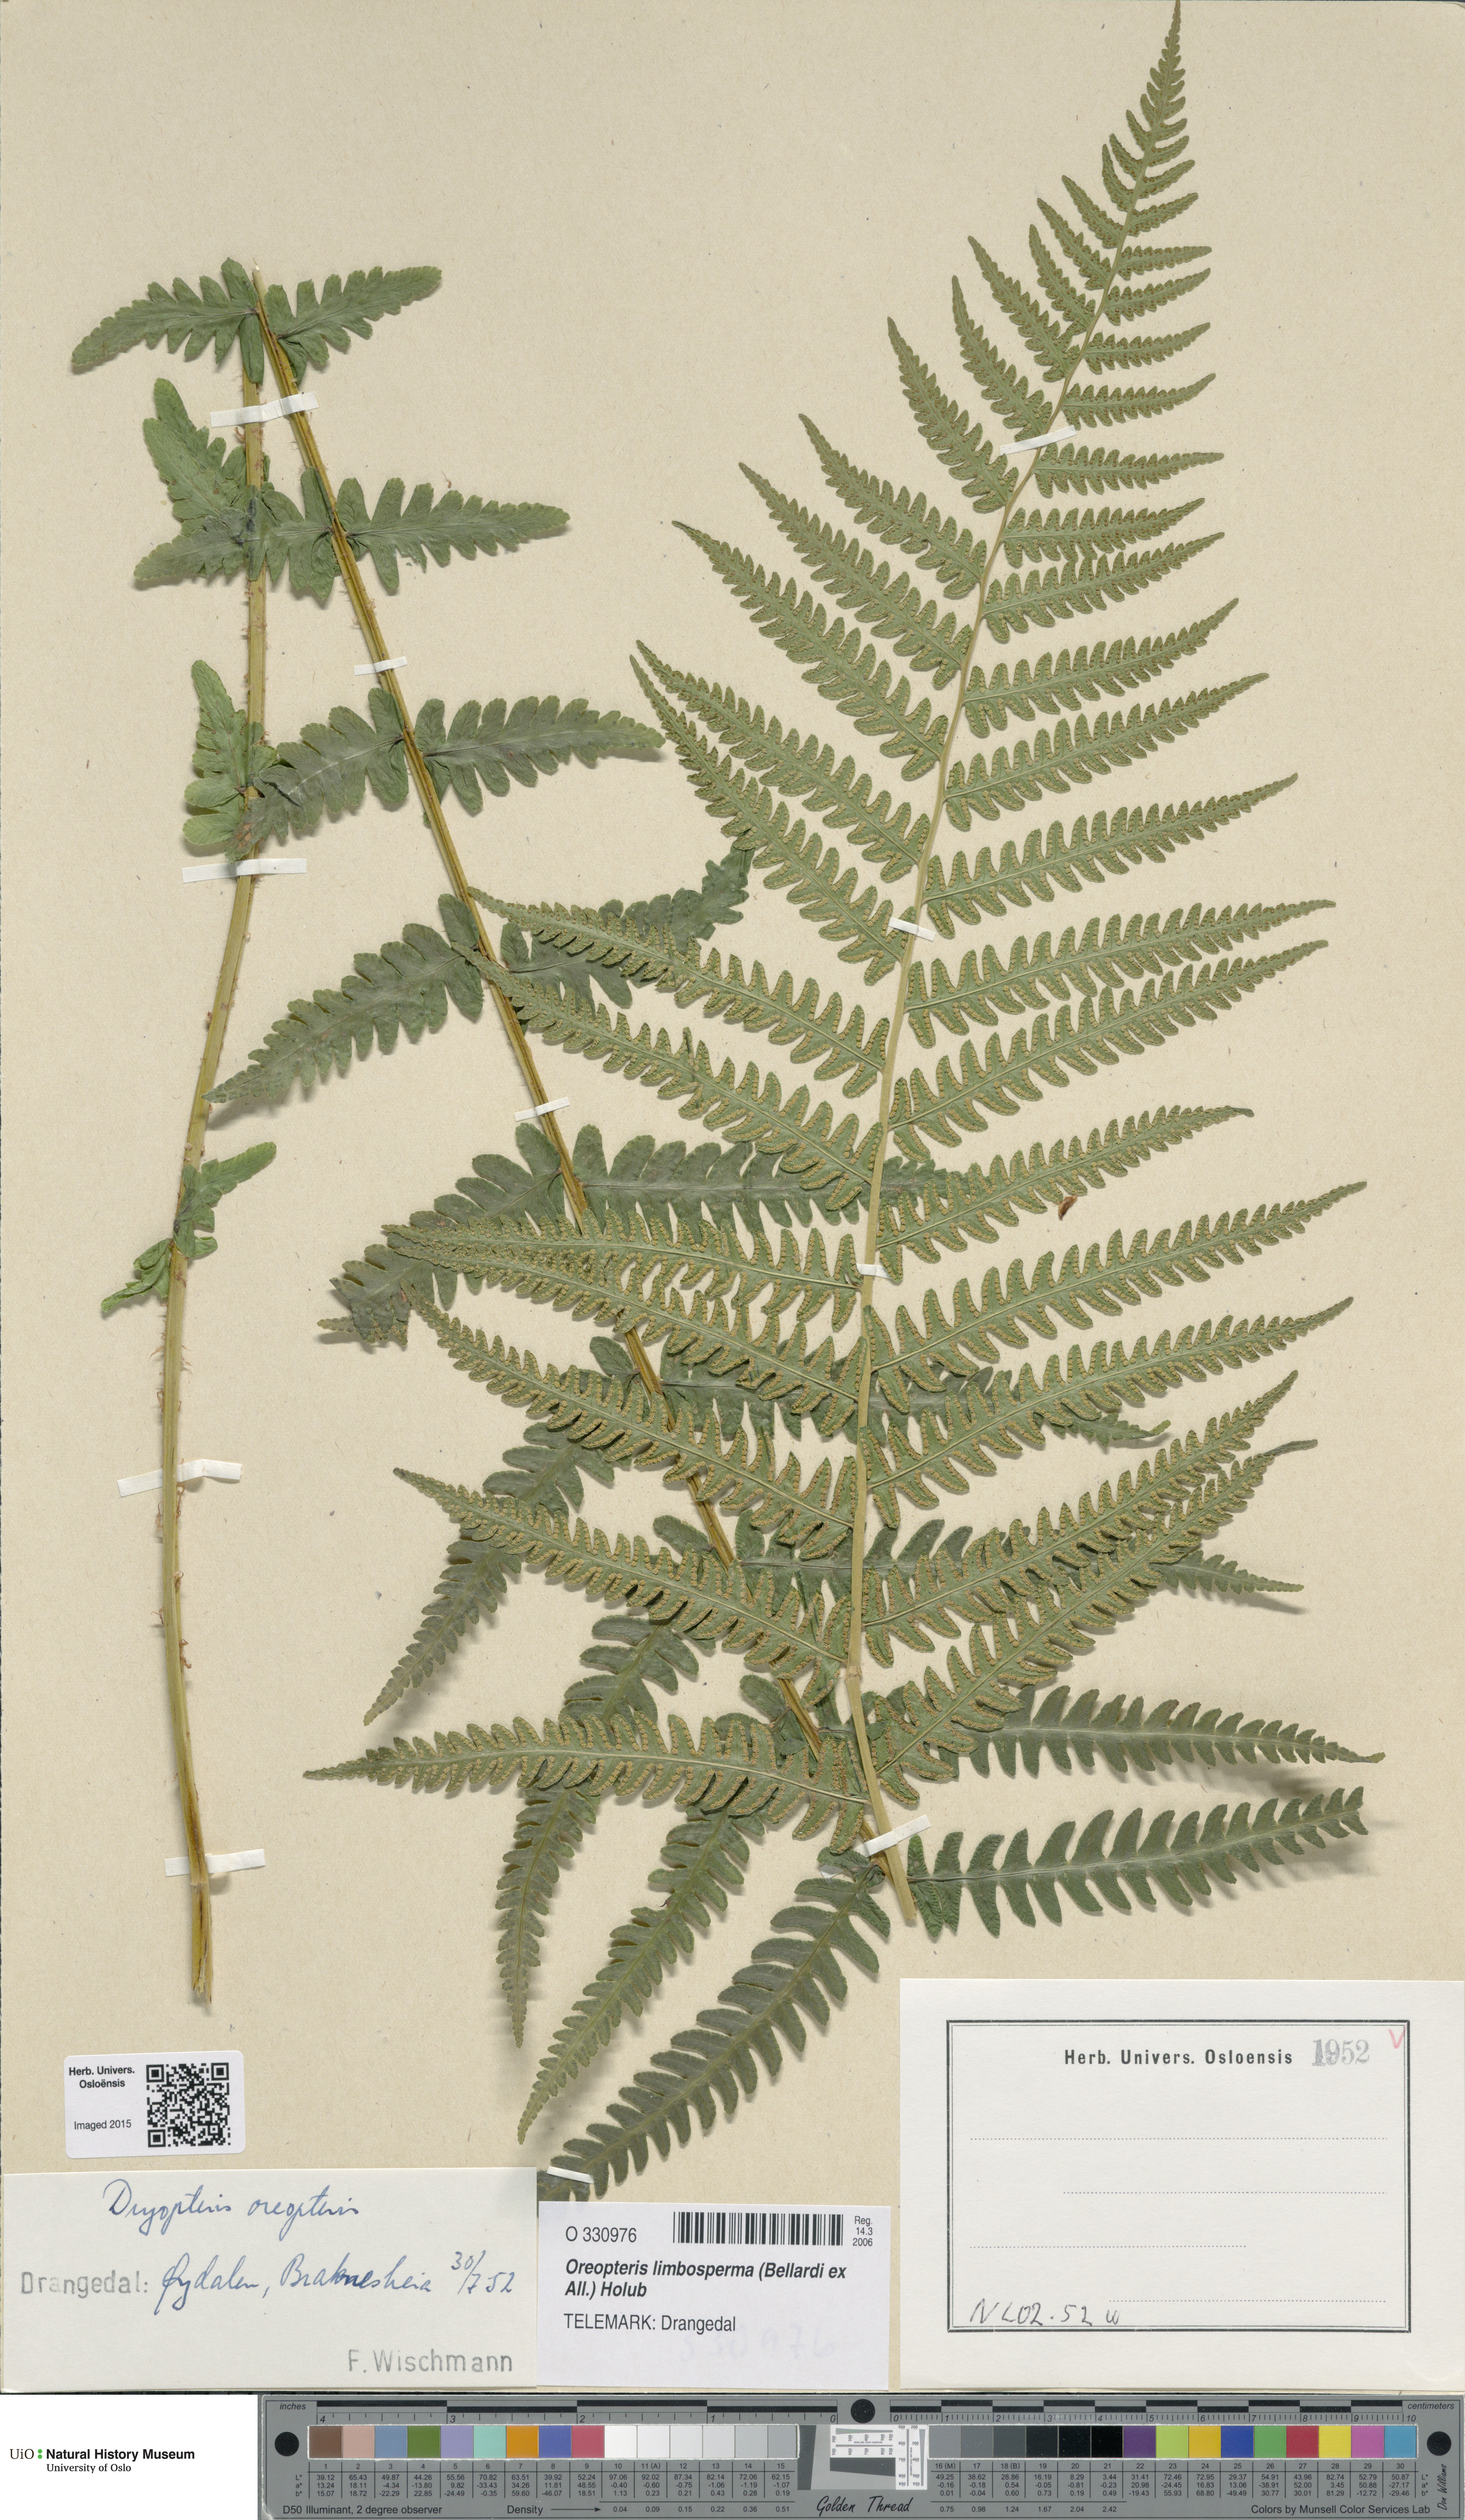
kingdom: Plantae
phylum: Tracheophyta
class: Polypodiopsida
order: Polypodiales
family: Thelypteridaceae
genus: Oreopteris
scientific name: Oreopteris limbosperma
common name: Lemon-scented fern
